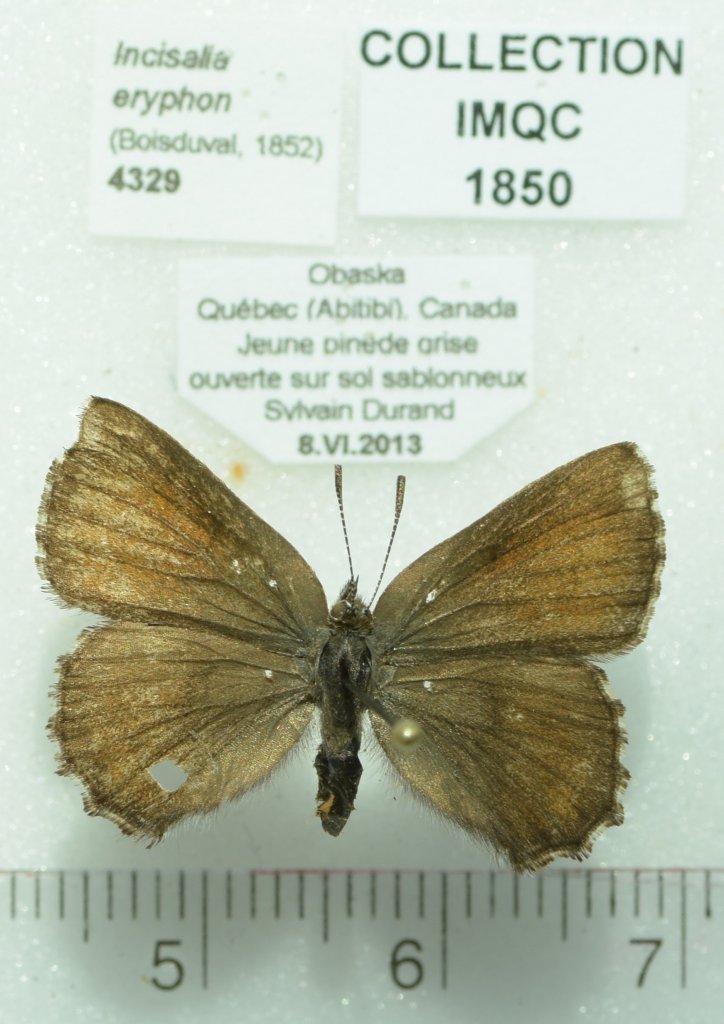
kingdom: Animalia
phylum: Arthropoda
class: Insecta
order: Lepidoptera
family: Lycaenidae
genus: Incisalia
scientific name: Incisalia eryphon
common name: Western Pine Elfin
